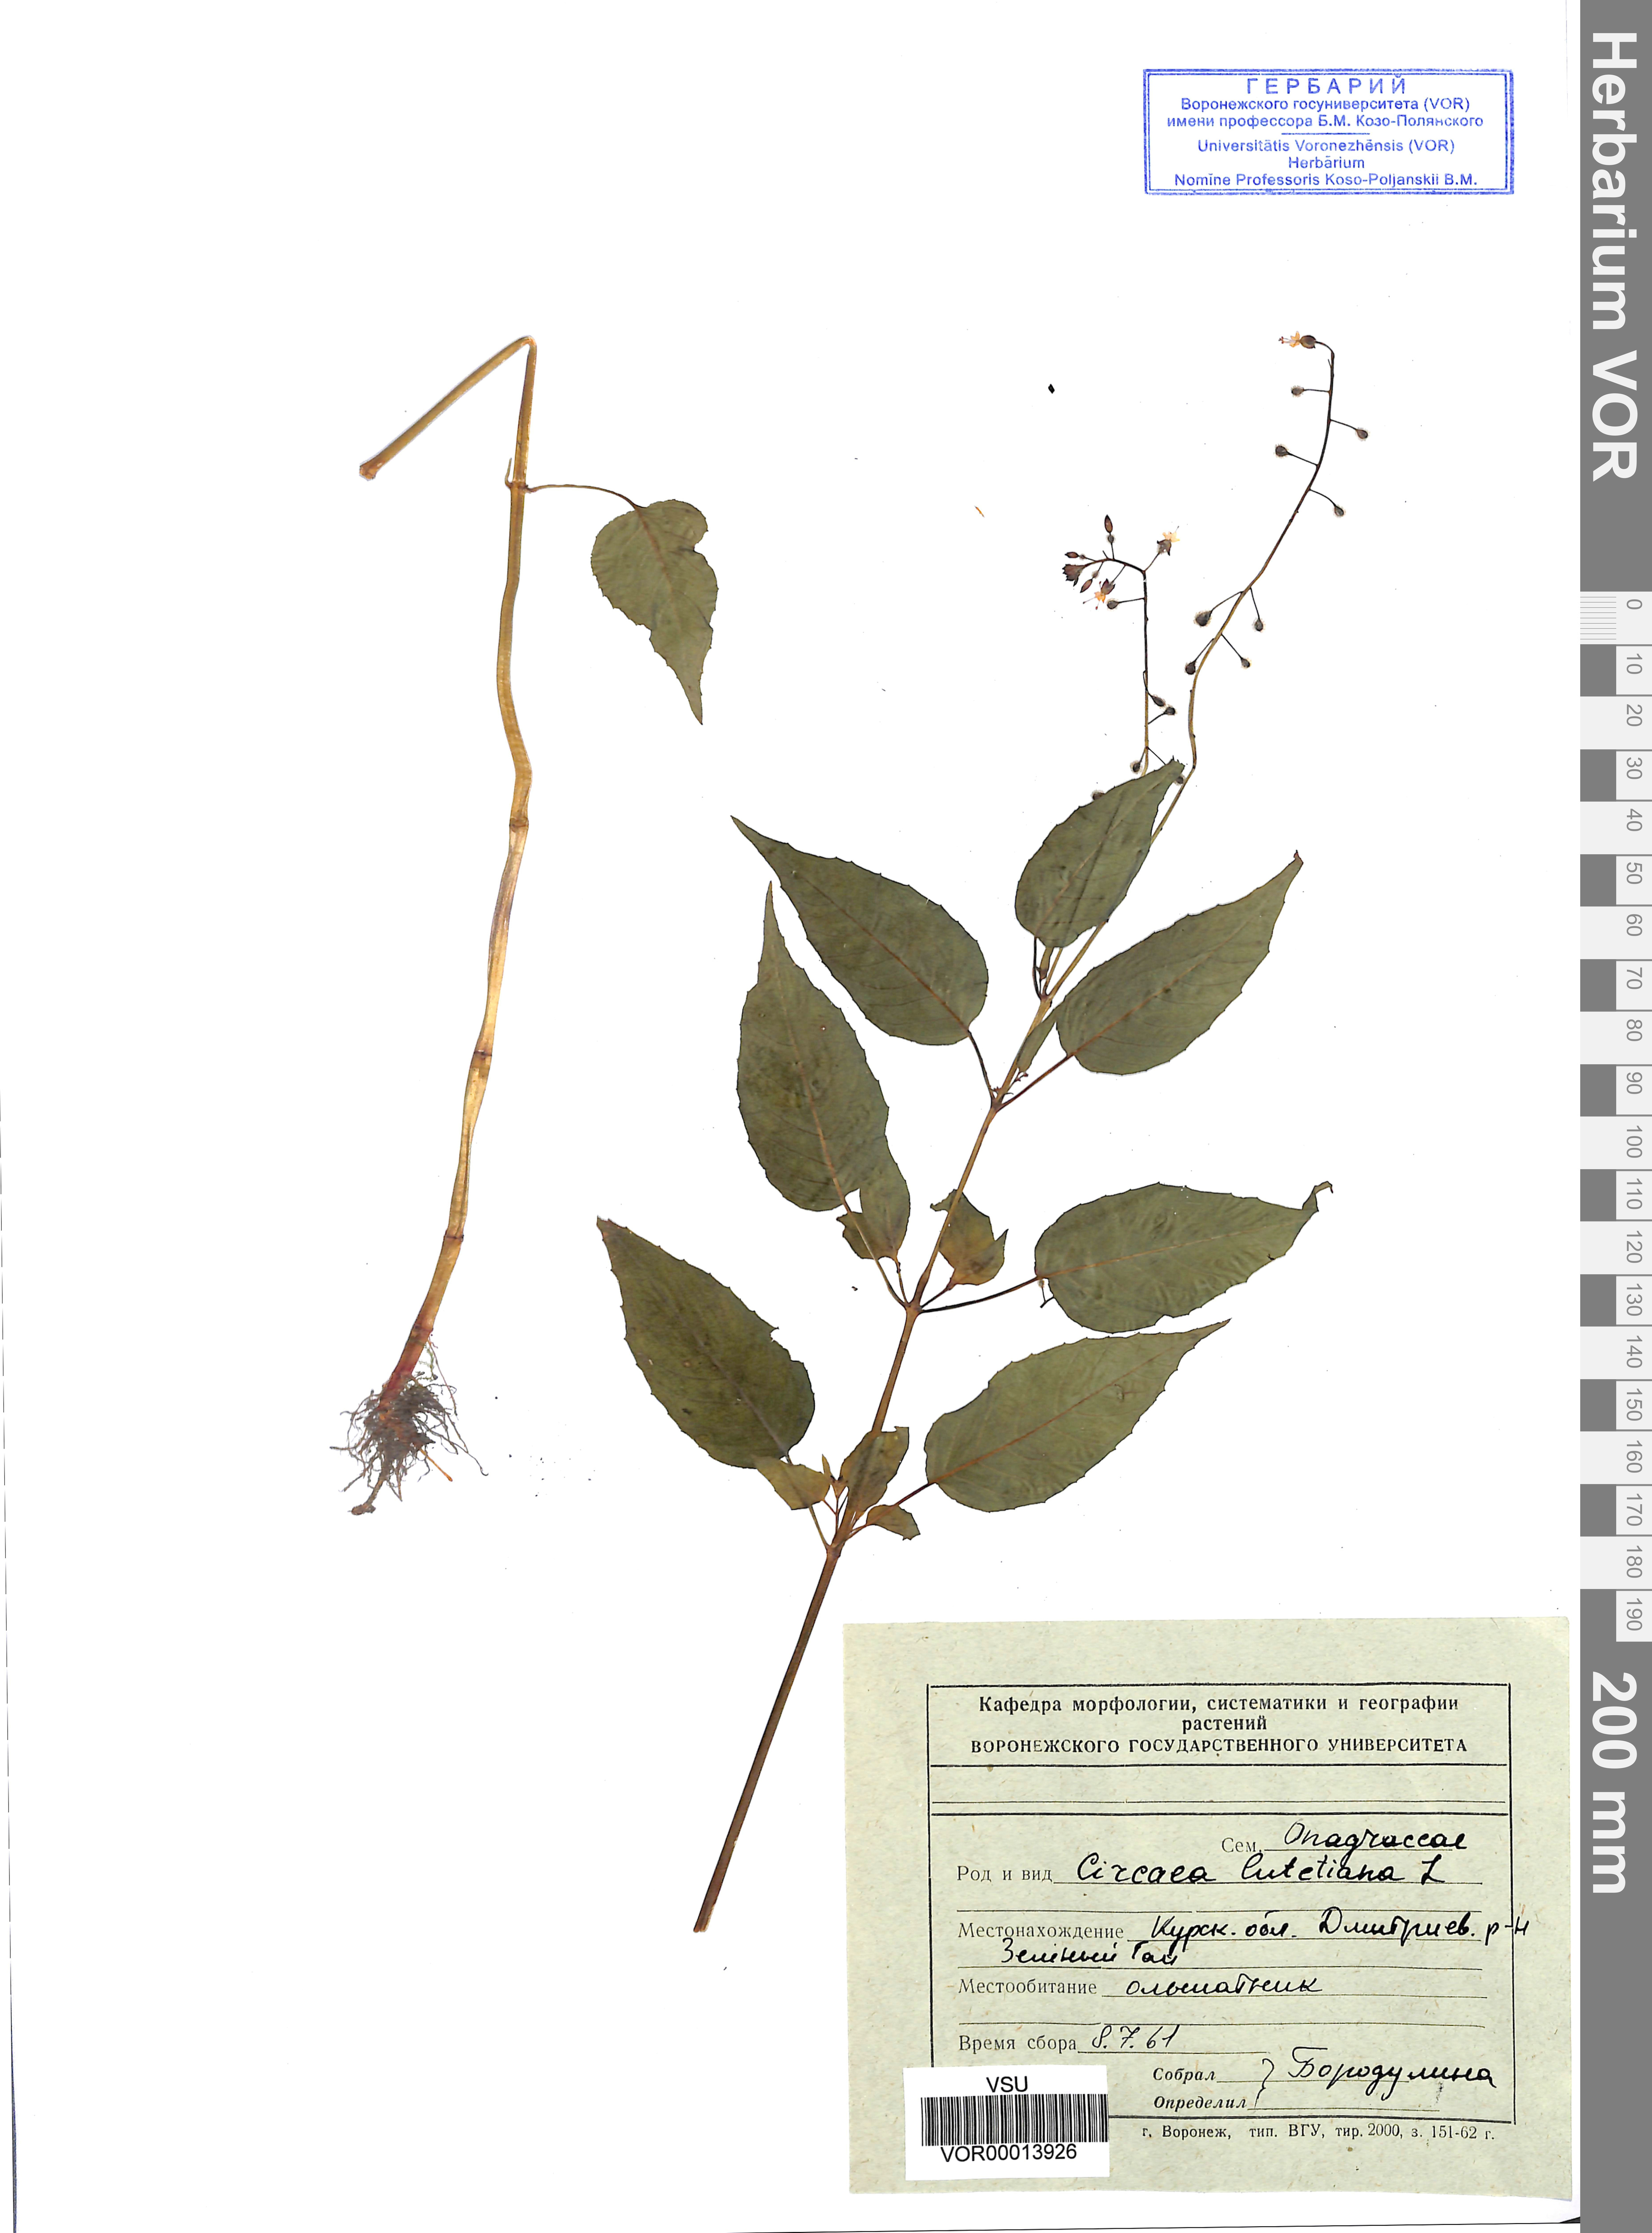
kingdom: Plantae
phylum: Tracheophyta
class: Magnoliopsida
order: Myrtales
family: Onagraceae
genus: Circaea
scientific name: Circaea alpina
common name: Alpine enchanter's-nightshade
